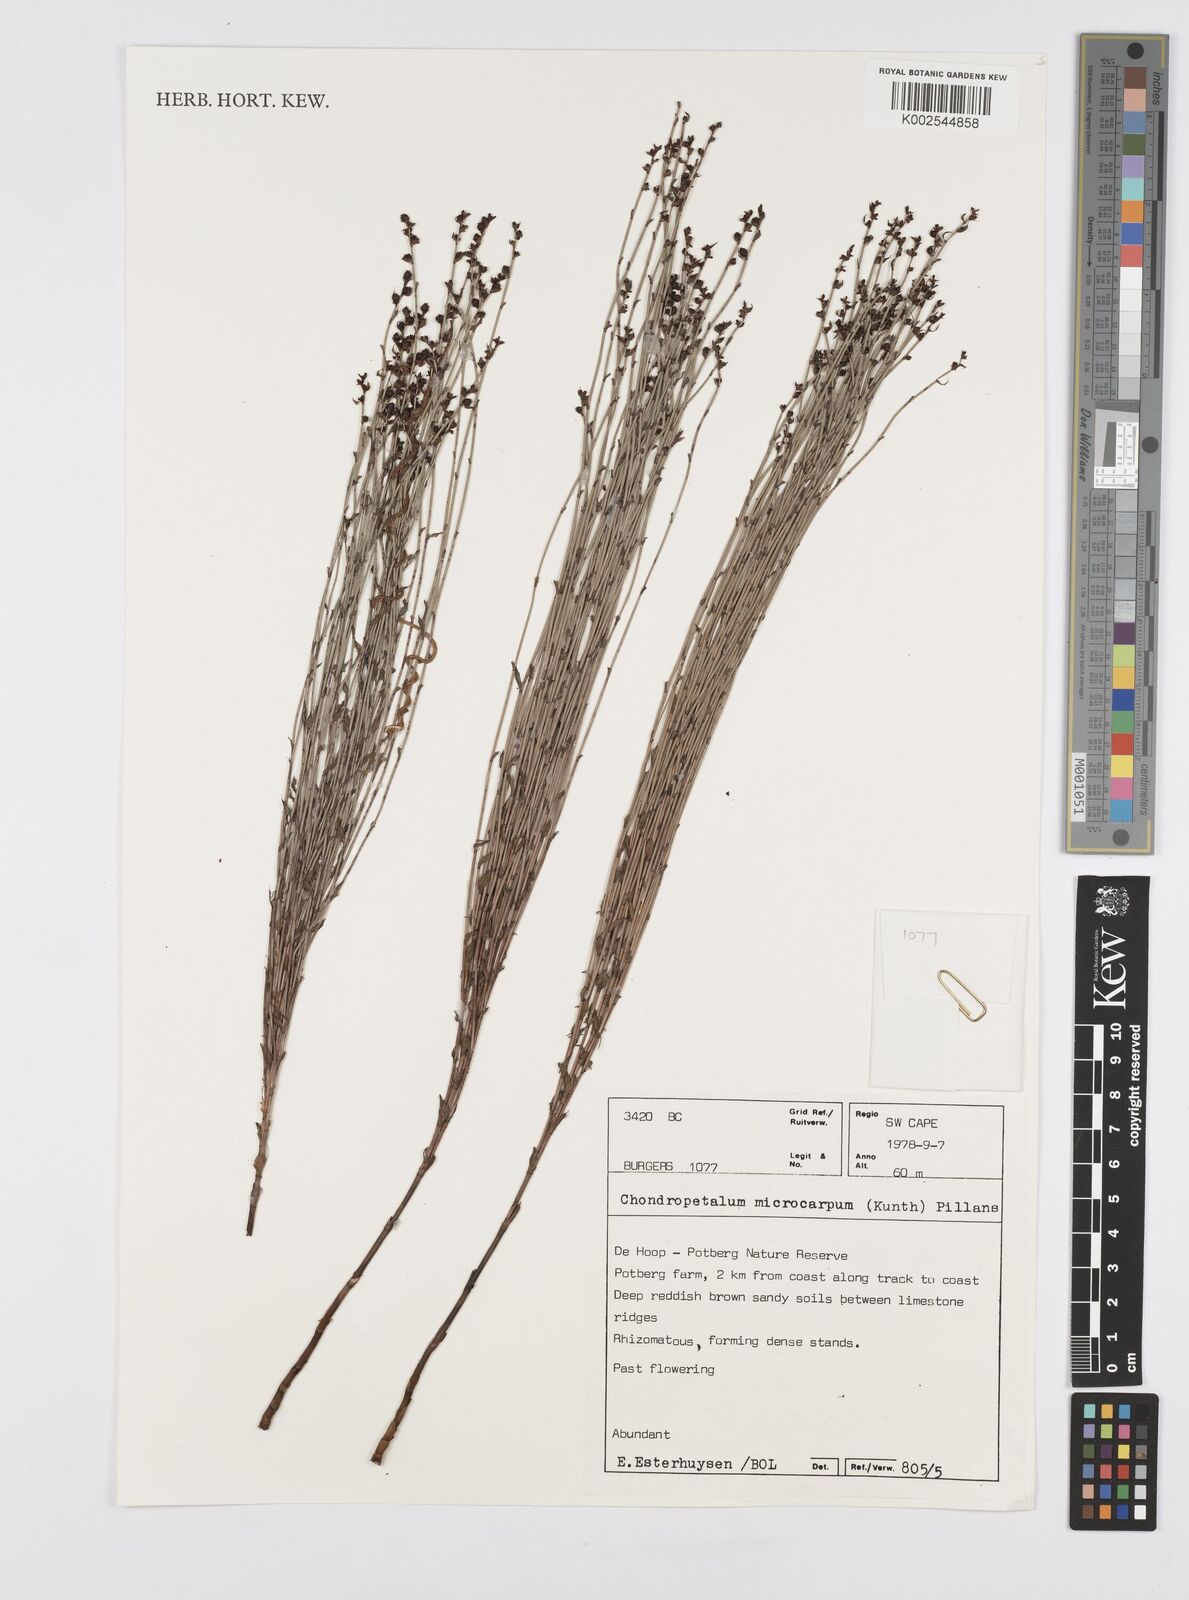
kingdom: Plantae
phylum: Tracheophyta
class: Liliopsida
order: Poales
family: Restionaceae
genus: Elegia
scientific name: Elegia microcarpa
